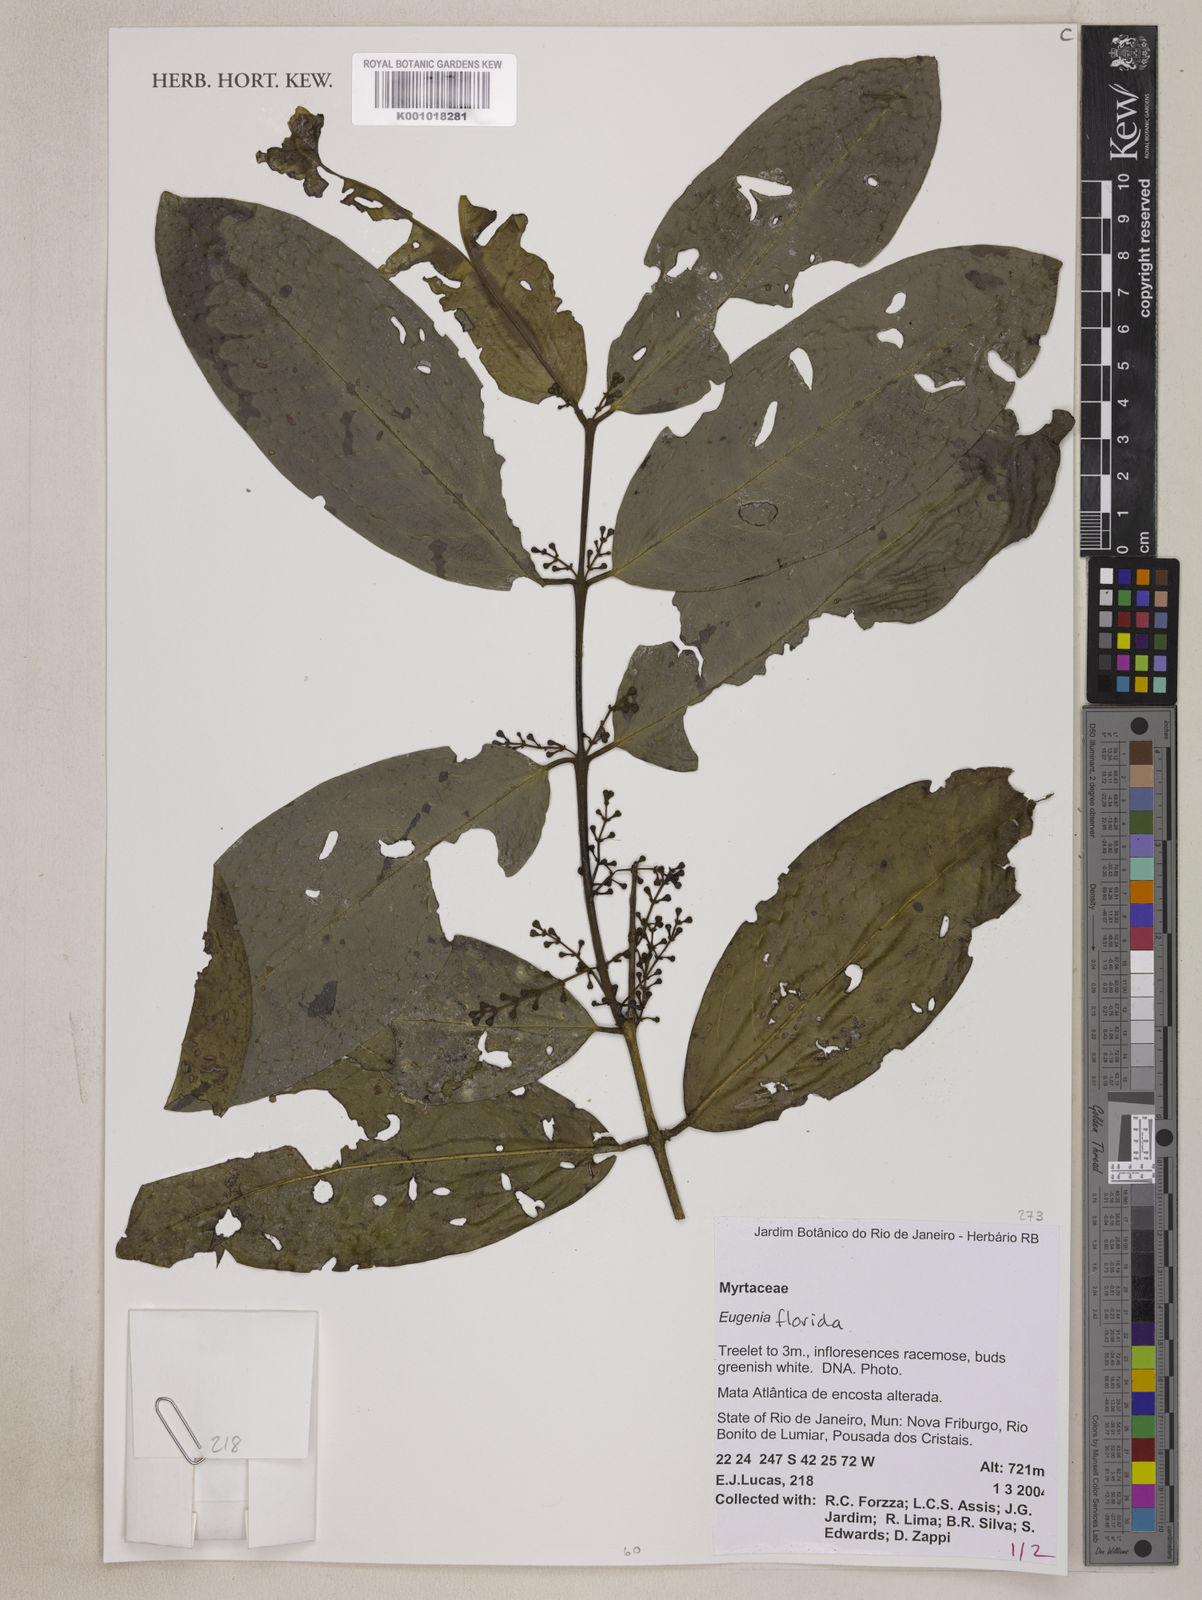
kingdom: Plantae
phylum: Tracheophyta
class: Magnoliopsida
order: Myrtales
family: Myrtaceae
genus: Eugenia
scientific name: Eugenia florida
